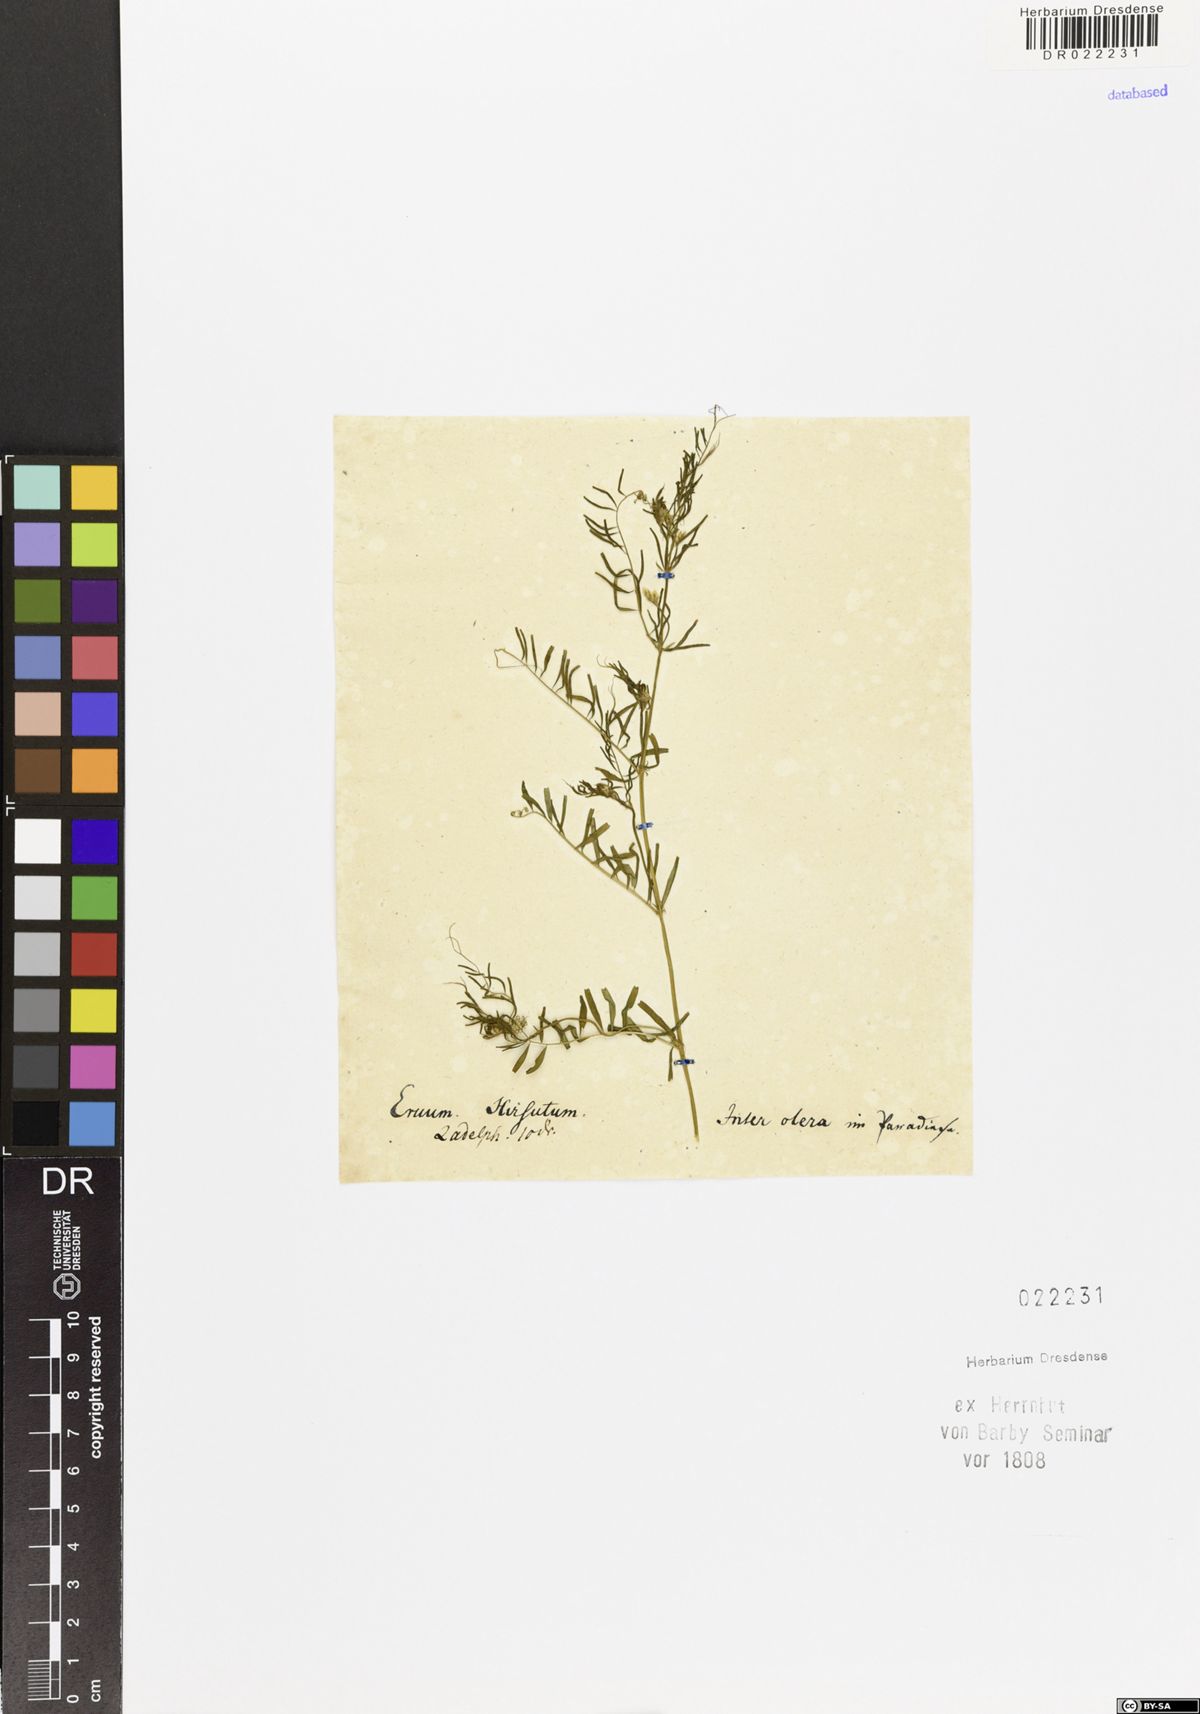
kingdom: Plantae
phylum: Tracheophyta
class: Magnoliopsida
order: Fabales
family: Fabaceae
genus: Vicia
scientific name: Vicia hirsuta
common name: Tiny vetch
